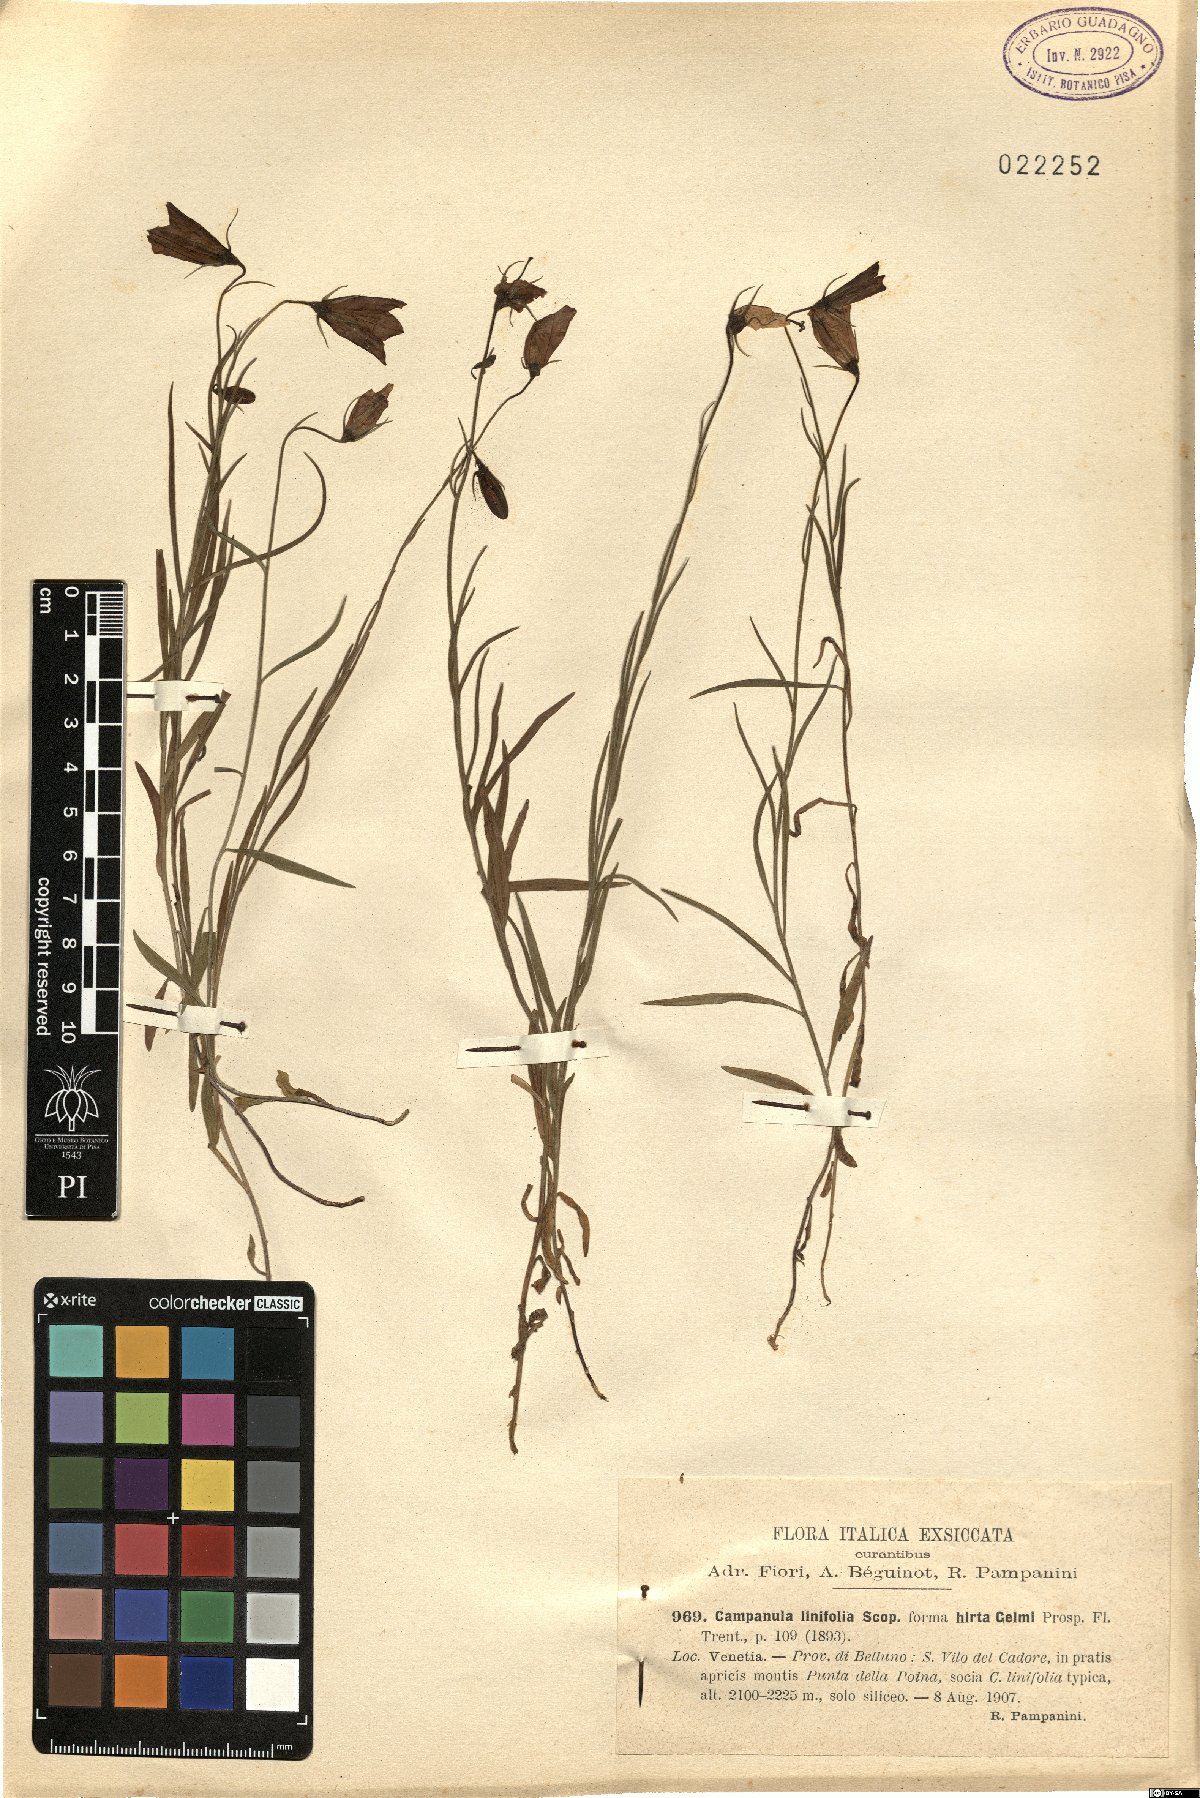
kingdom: Plantae
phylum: Tracheophyta
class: Magnoliopsida
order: Asterales
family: Campanulaceae
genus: Campanula
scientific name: Campanula carnica
